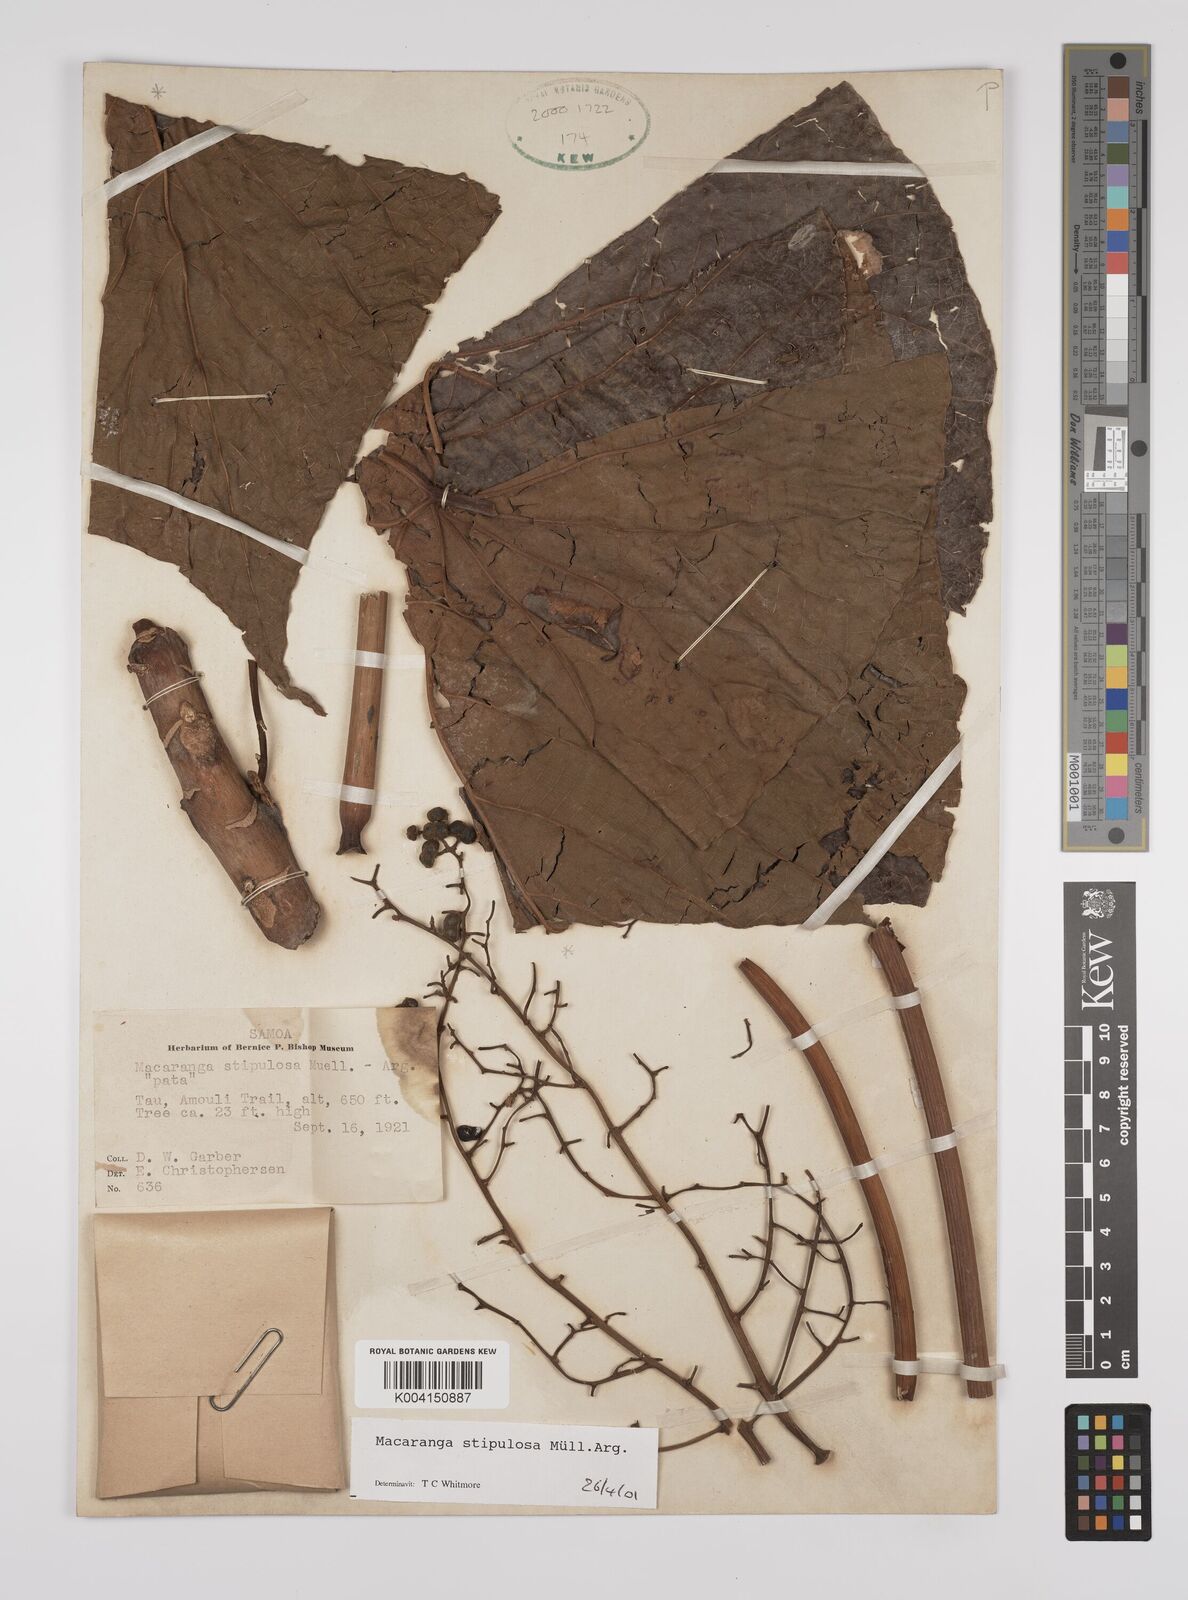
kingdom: Plantae
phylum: Tracheophyta
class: Magnoliopsida
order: Malpighiales
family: Euphorbiaceae
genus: Macaranga
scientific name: Macaranga stipulosa
